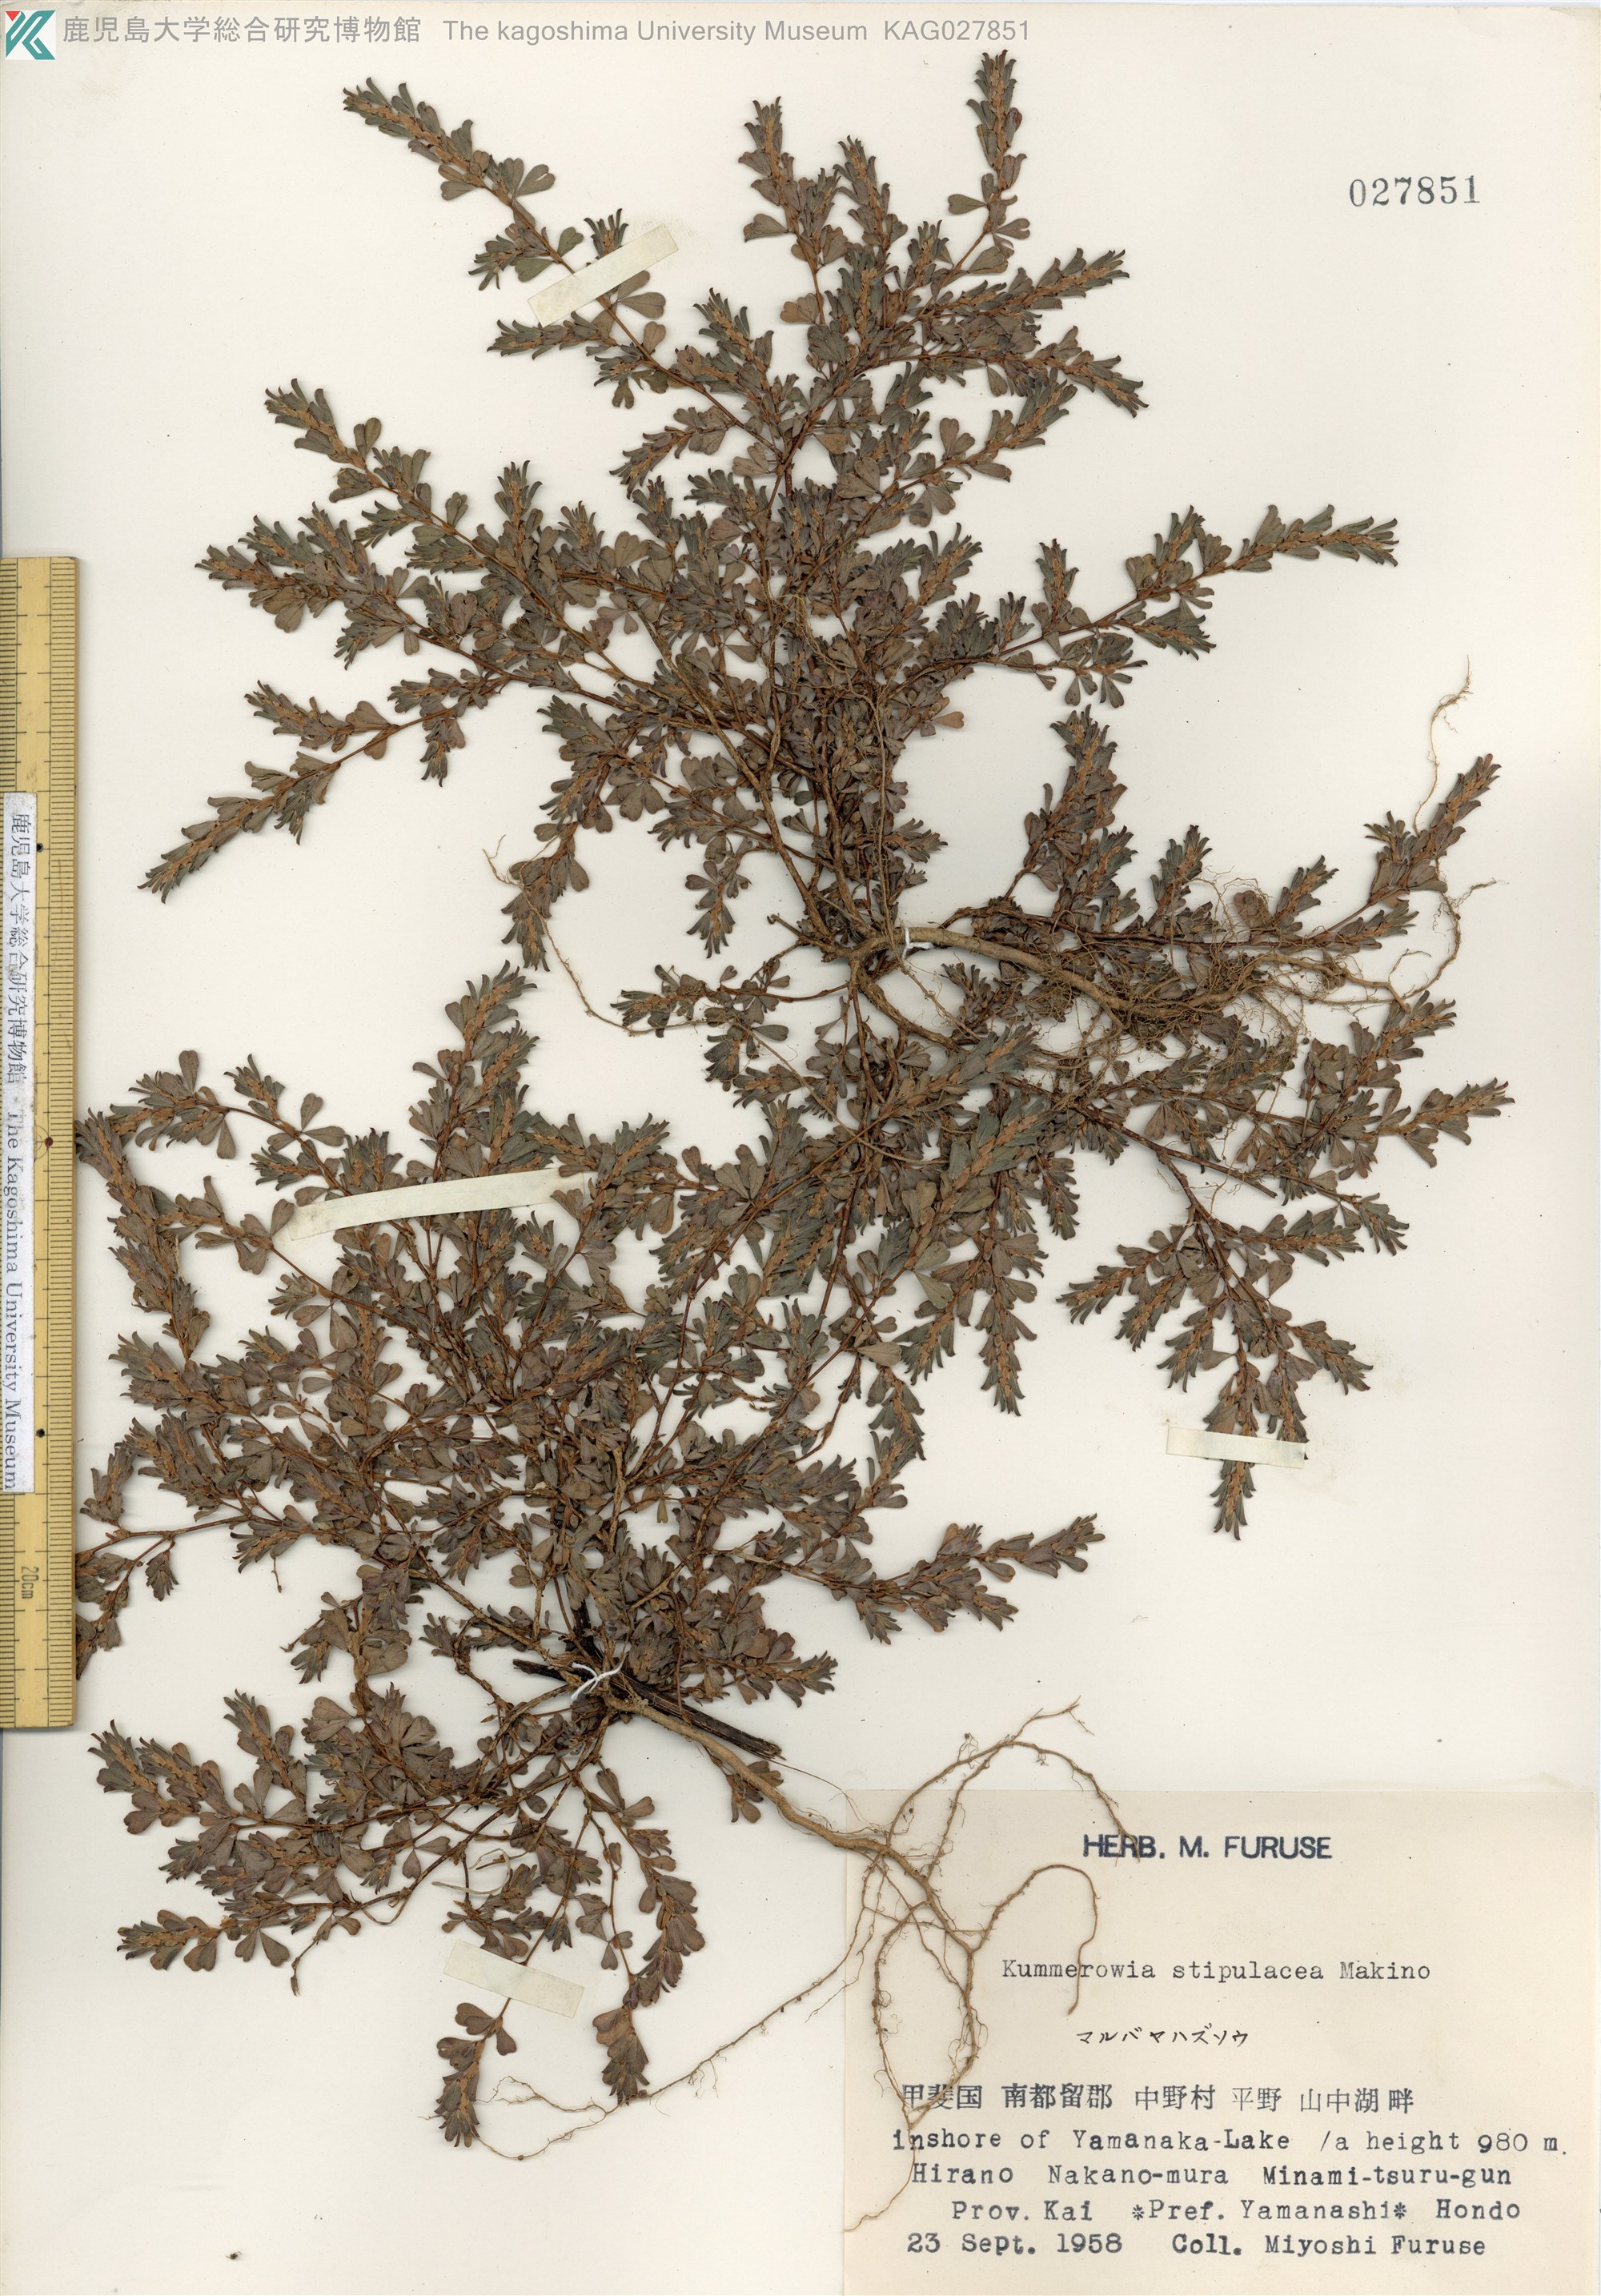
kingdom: Plantae
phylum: Tracheophyta
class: Magnoliopsida
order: Fabales
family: Fabaceae
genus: Kummerowia
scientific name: Kummerowia stipulacea
